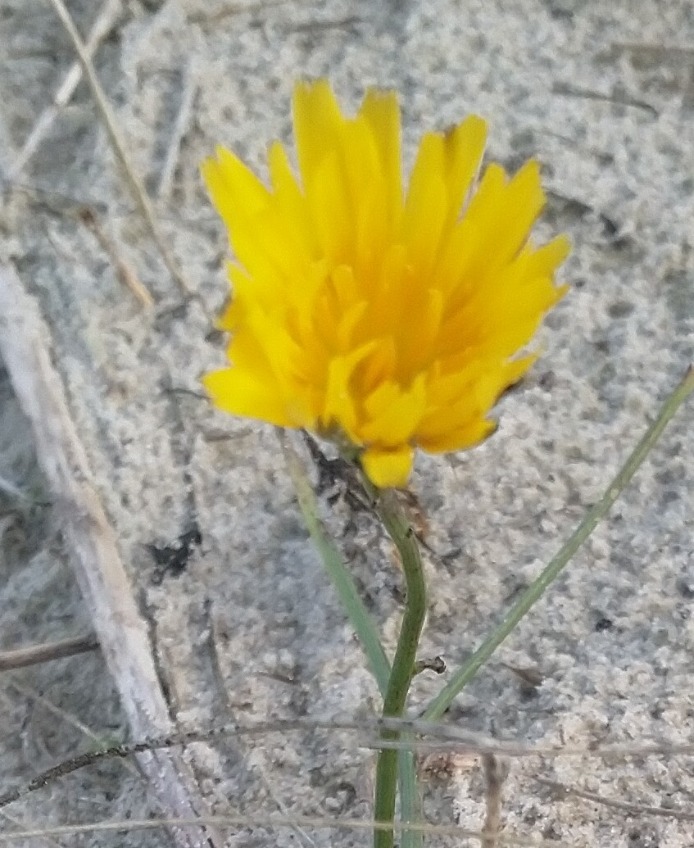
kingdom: Plantae
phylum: Tracheophyta
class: Magnoliopsida
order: Asterales
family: Asteraceae
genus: Hypochaeris
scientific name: Hypochaeris radicata
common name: Almindelig kongepen
